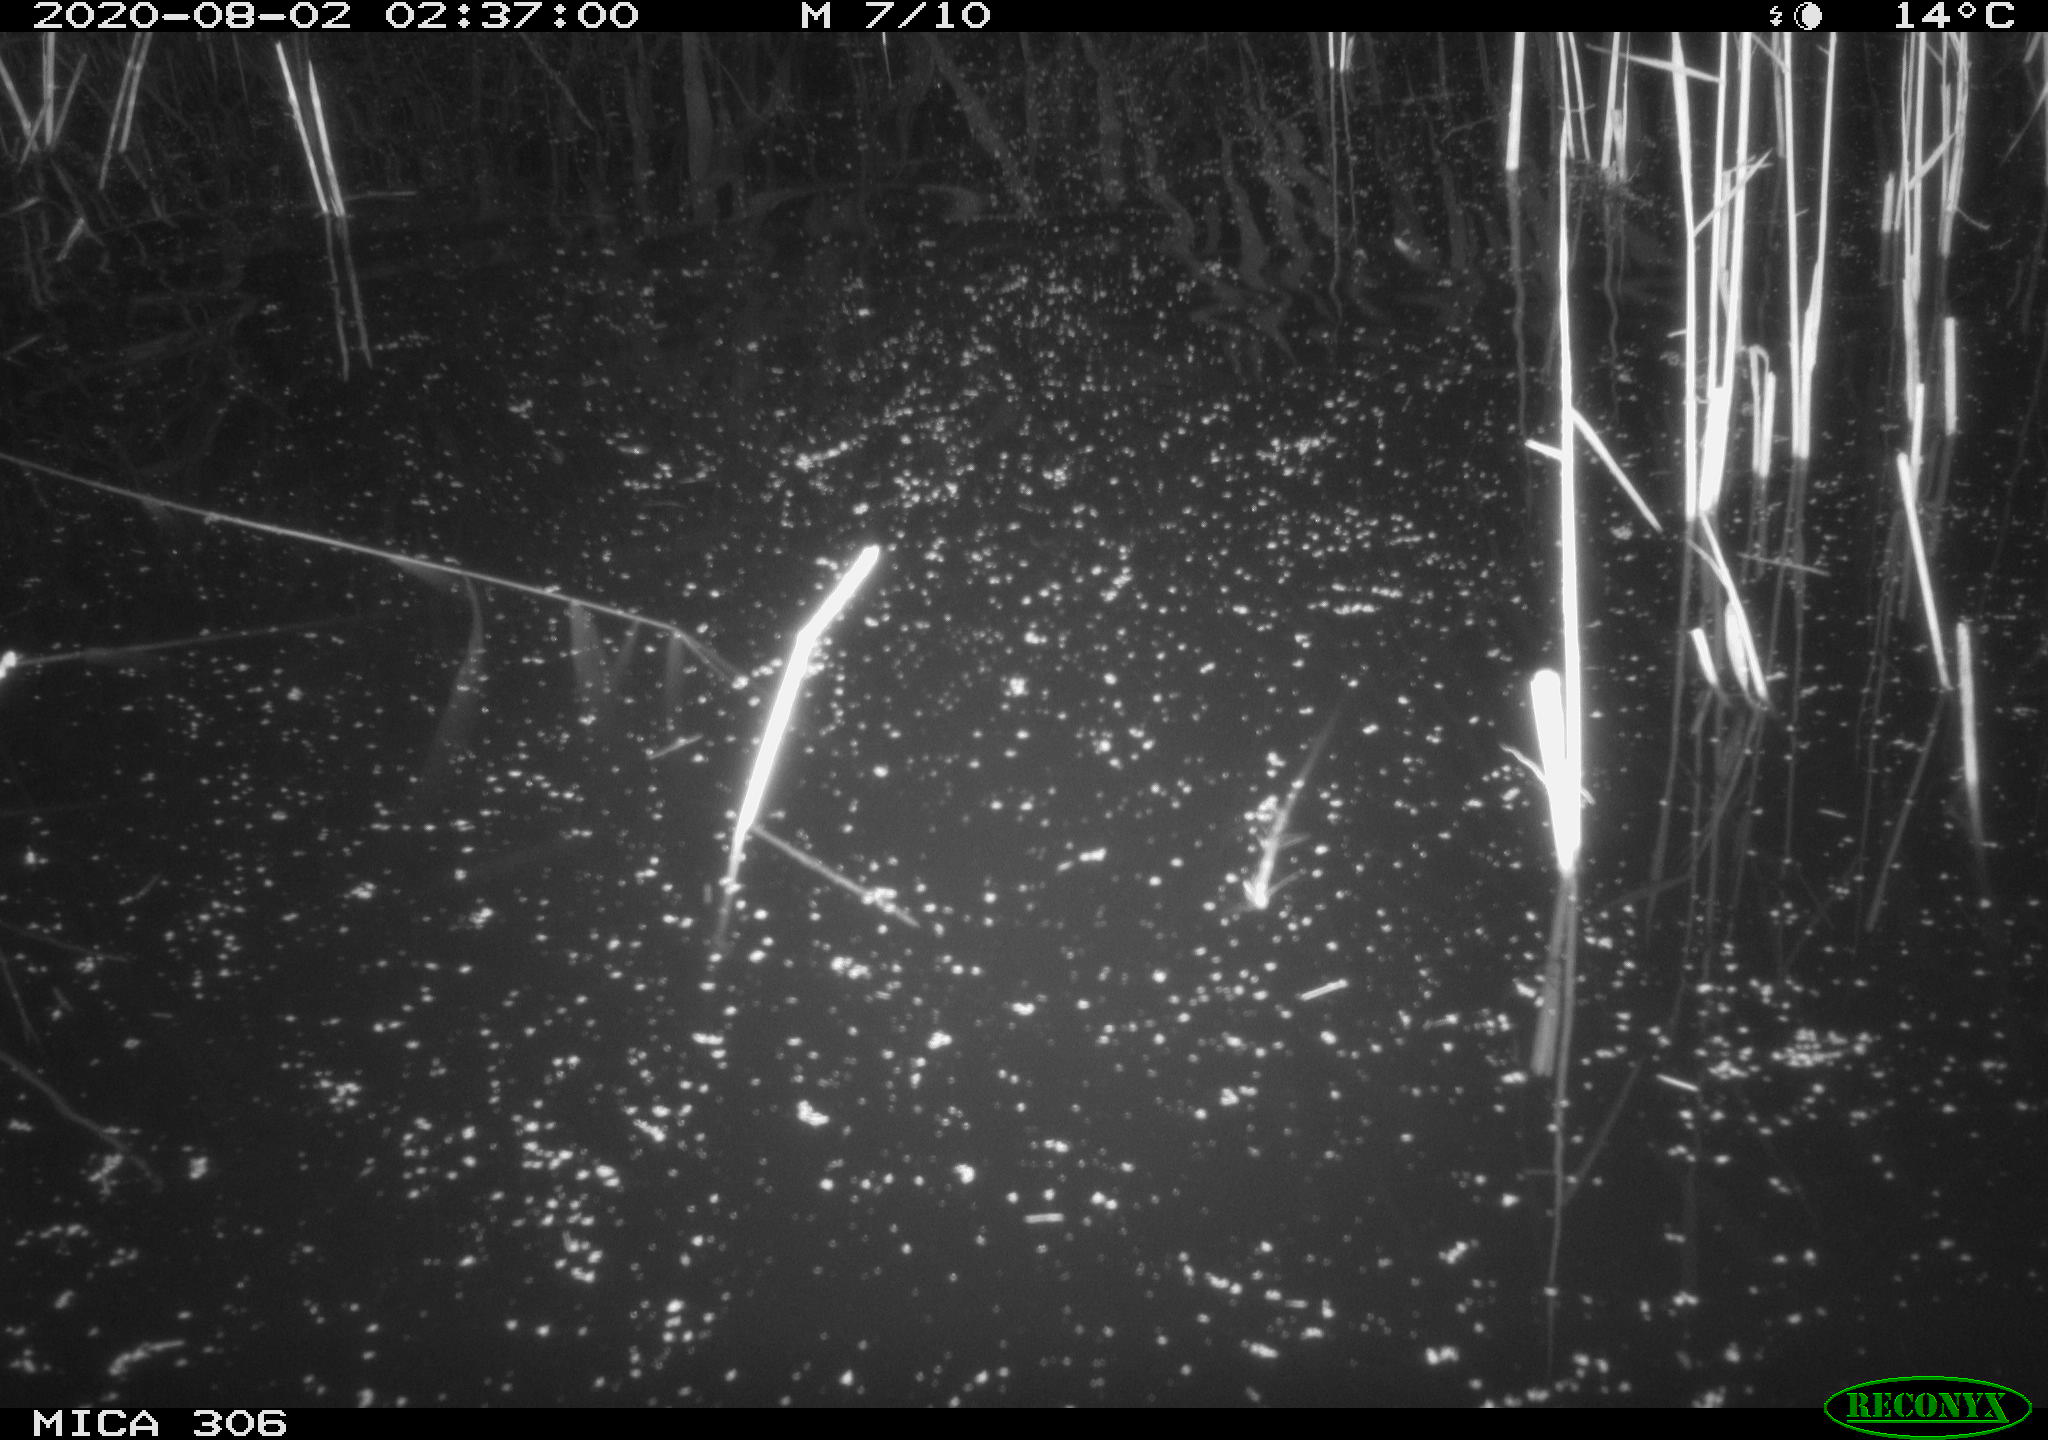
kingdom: Animalia
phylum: Chordata
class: Mammalia
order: Rodentia
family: Muridae
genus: Rattus
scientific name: Rattus norvegicus
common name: Brown rat
